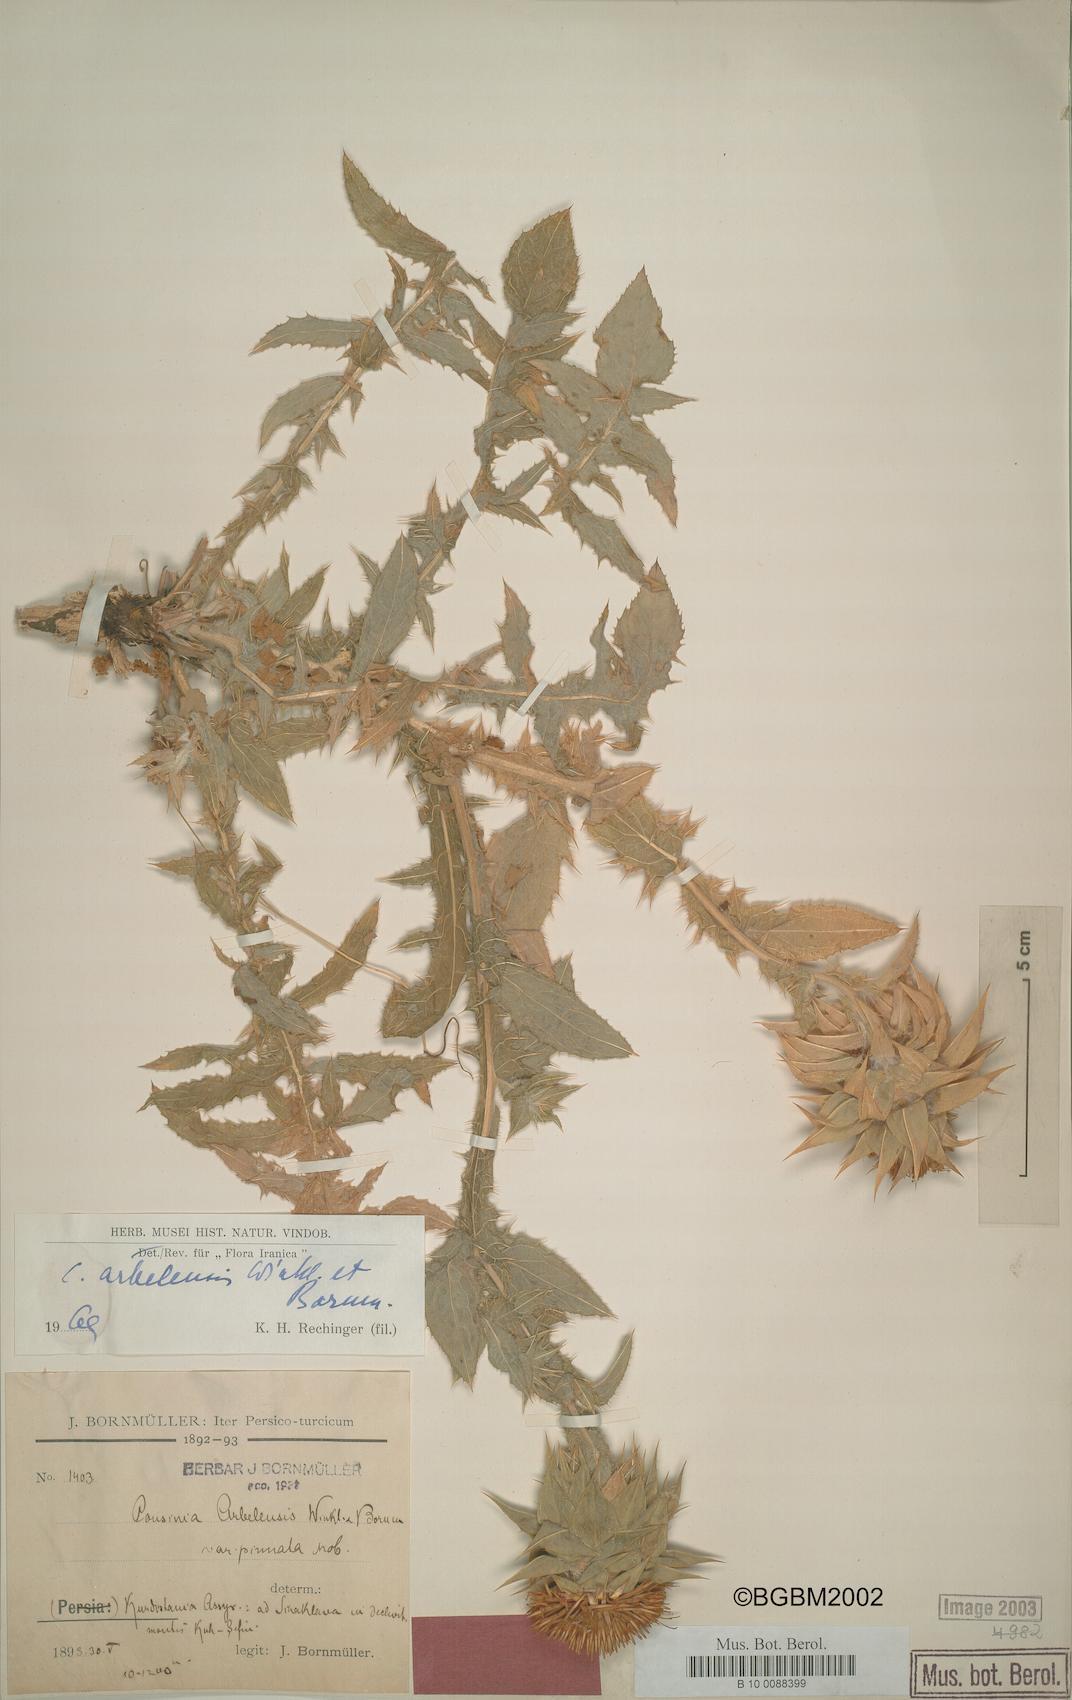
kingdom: Plantae
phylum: Tracheophyta
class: Magnoliopsida
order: Asterales
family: Asteraceae
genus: Cousinia
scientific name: Cousinia aintabensis
